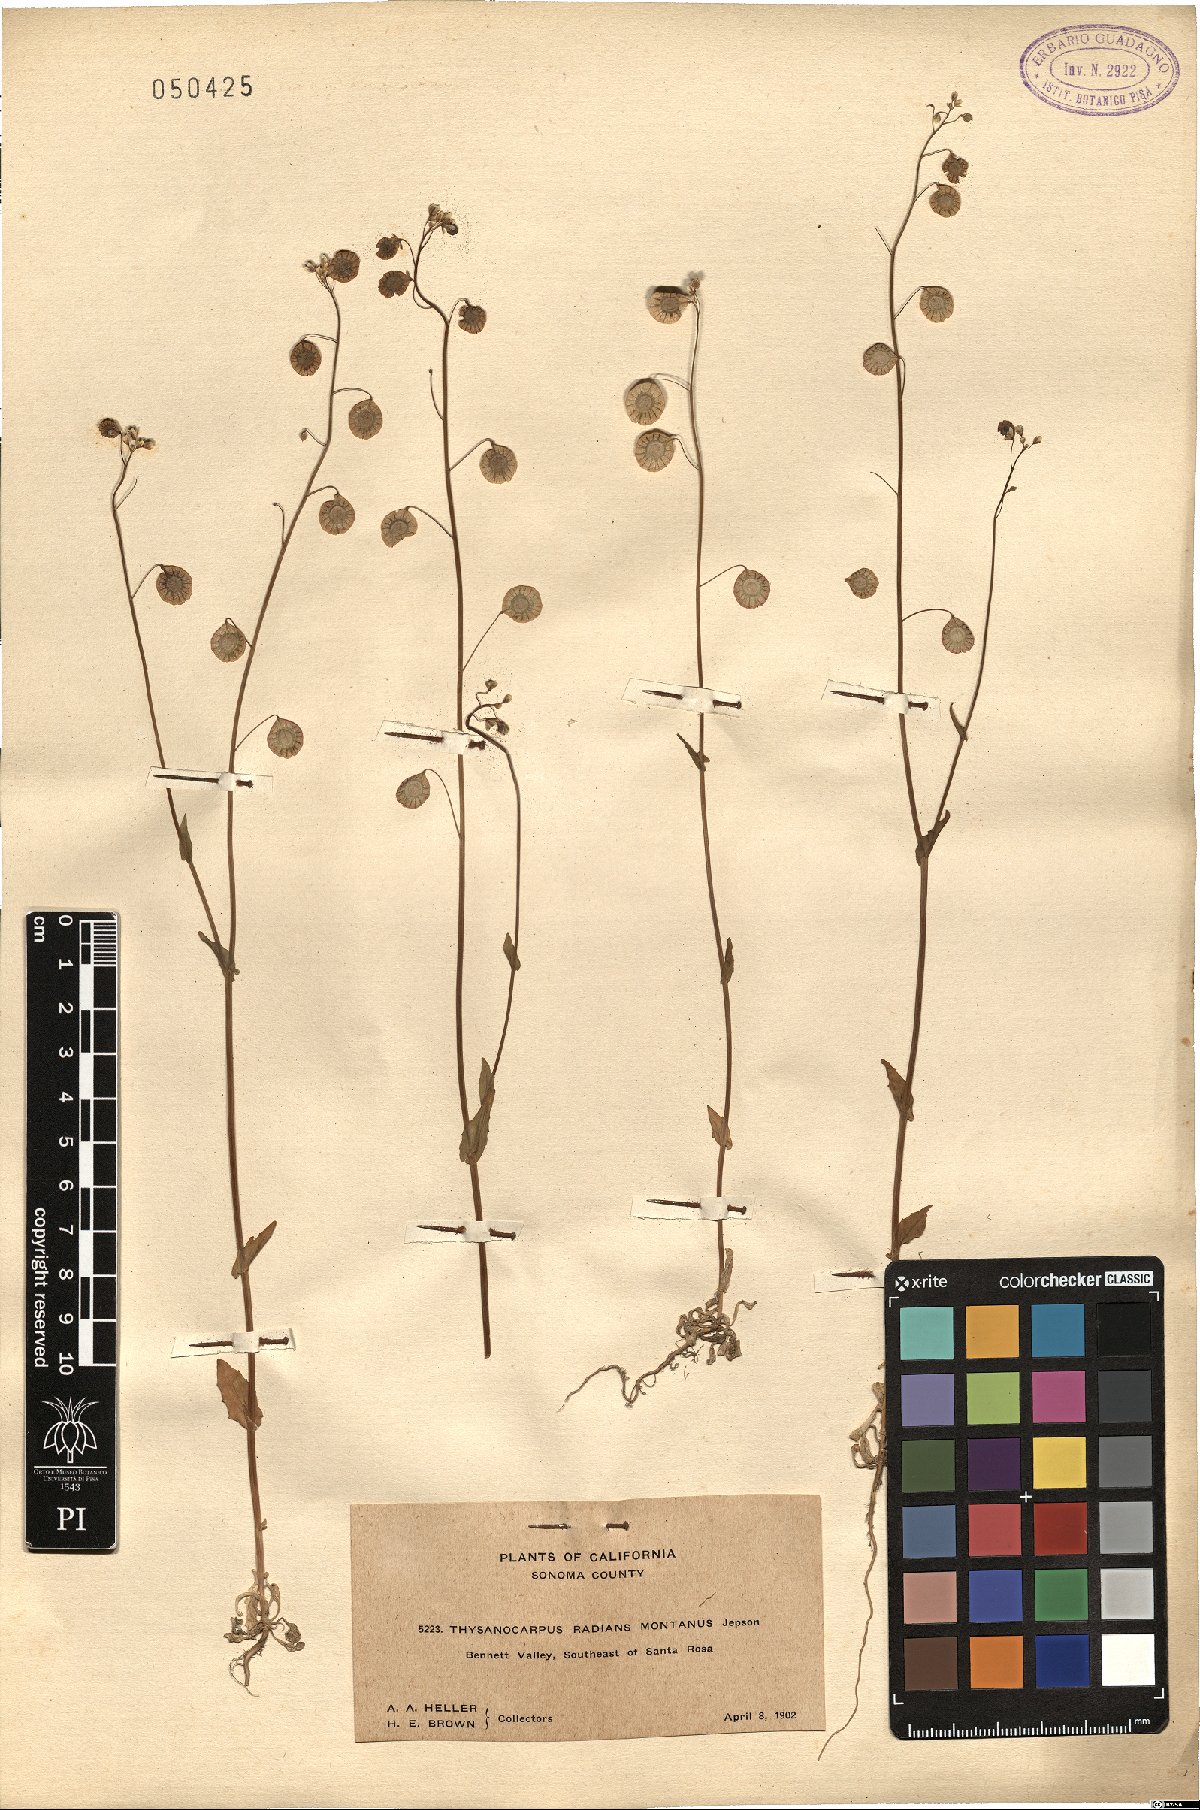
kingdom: Plantae
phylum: Tracheophyta
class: Magnoliopsida
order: Brassicales
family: Brassicaceae
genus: Thysanocarpus
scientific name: Thysanocarpus radians
